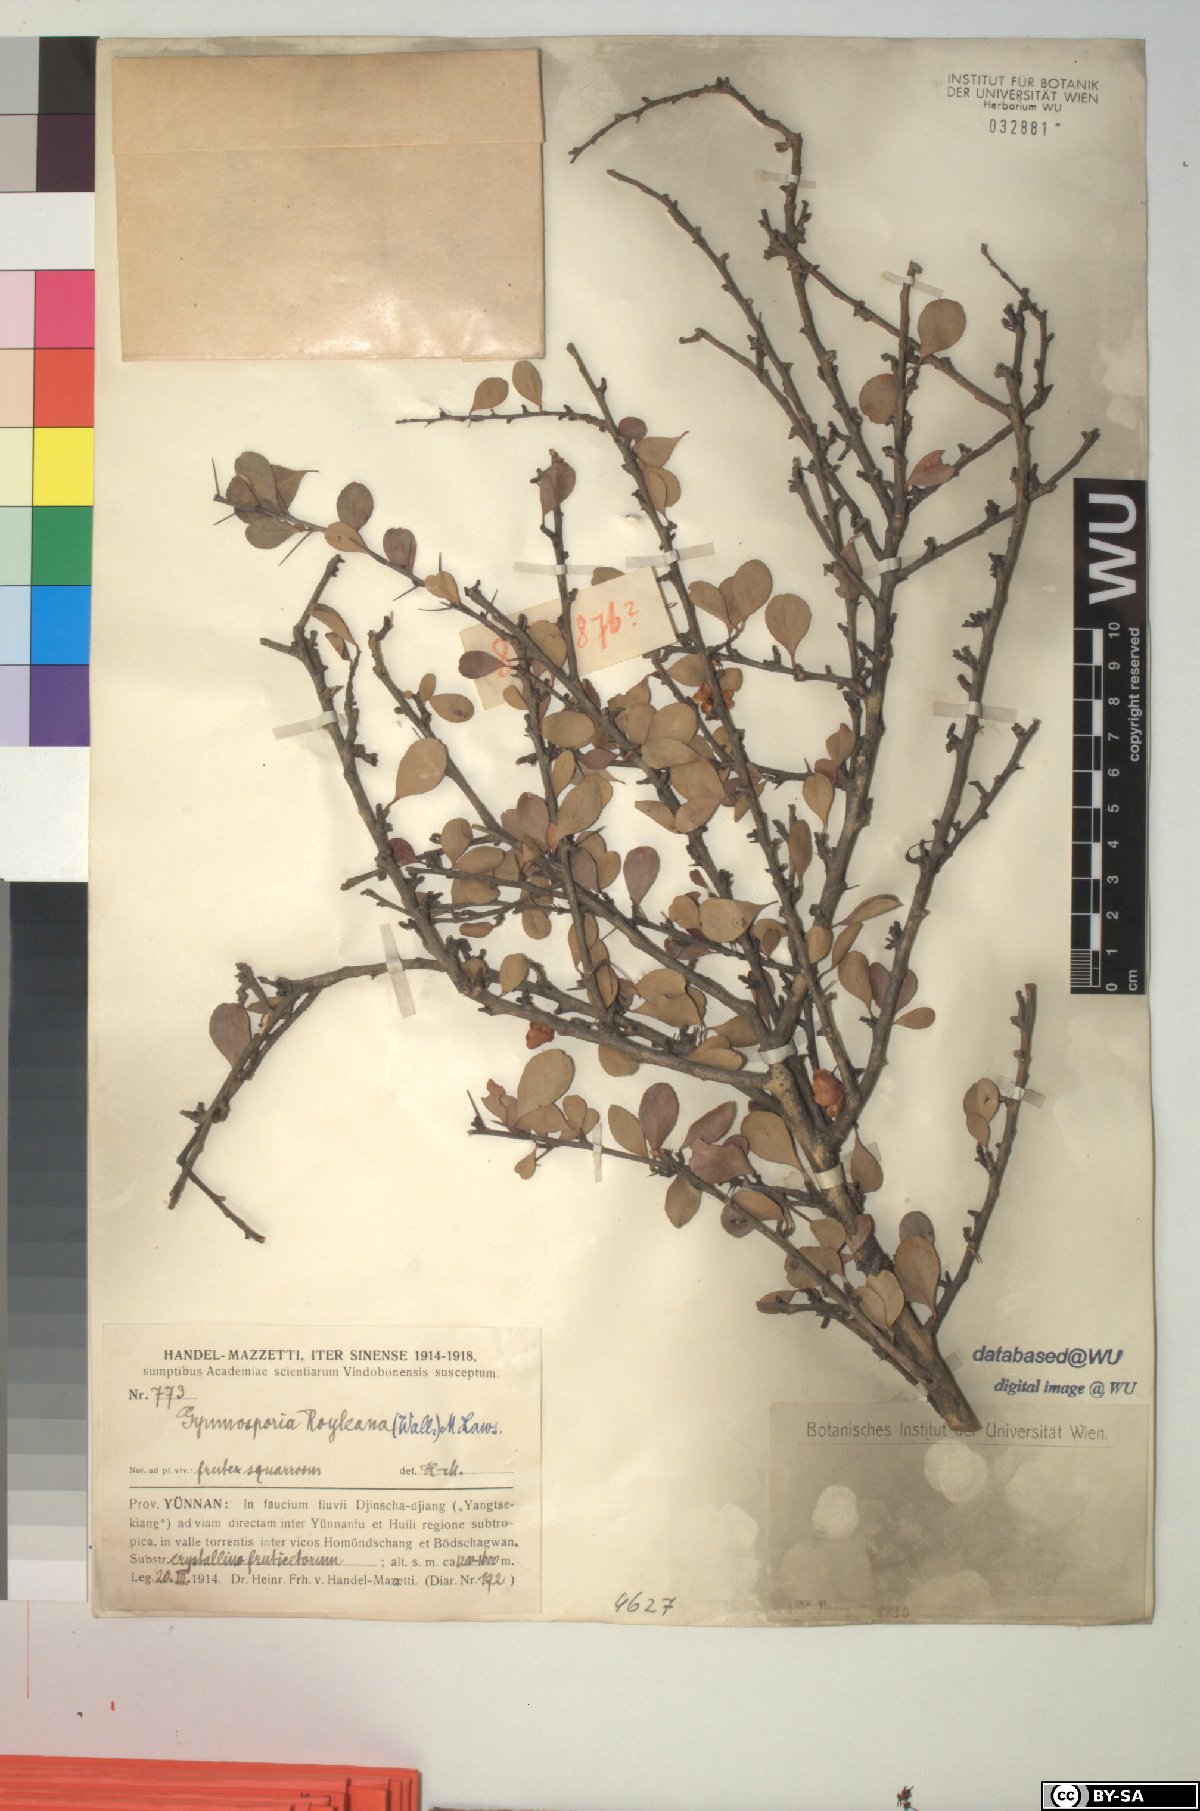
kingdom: Plantae
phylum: Tracheophyta
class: Magnoliopsida
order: Celastrales
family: Celastraceae
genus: Gymnosporia
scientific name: Gymnosporia royleana
